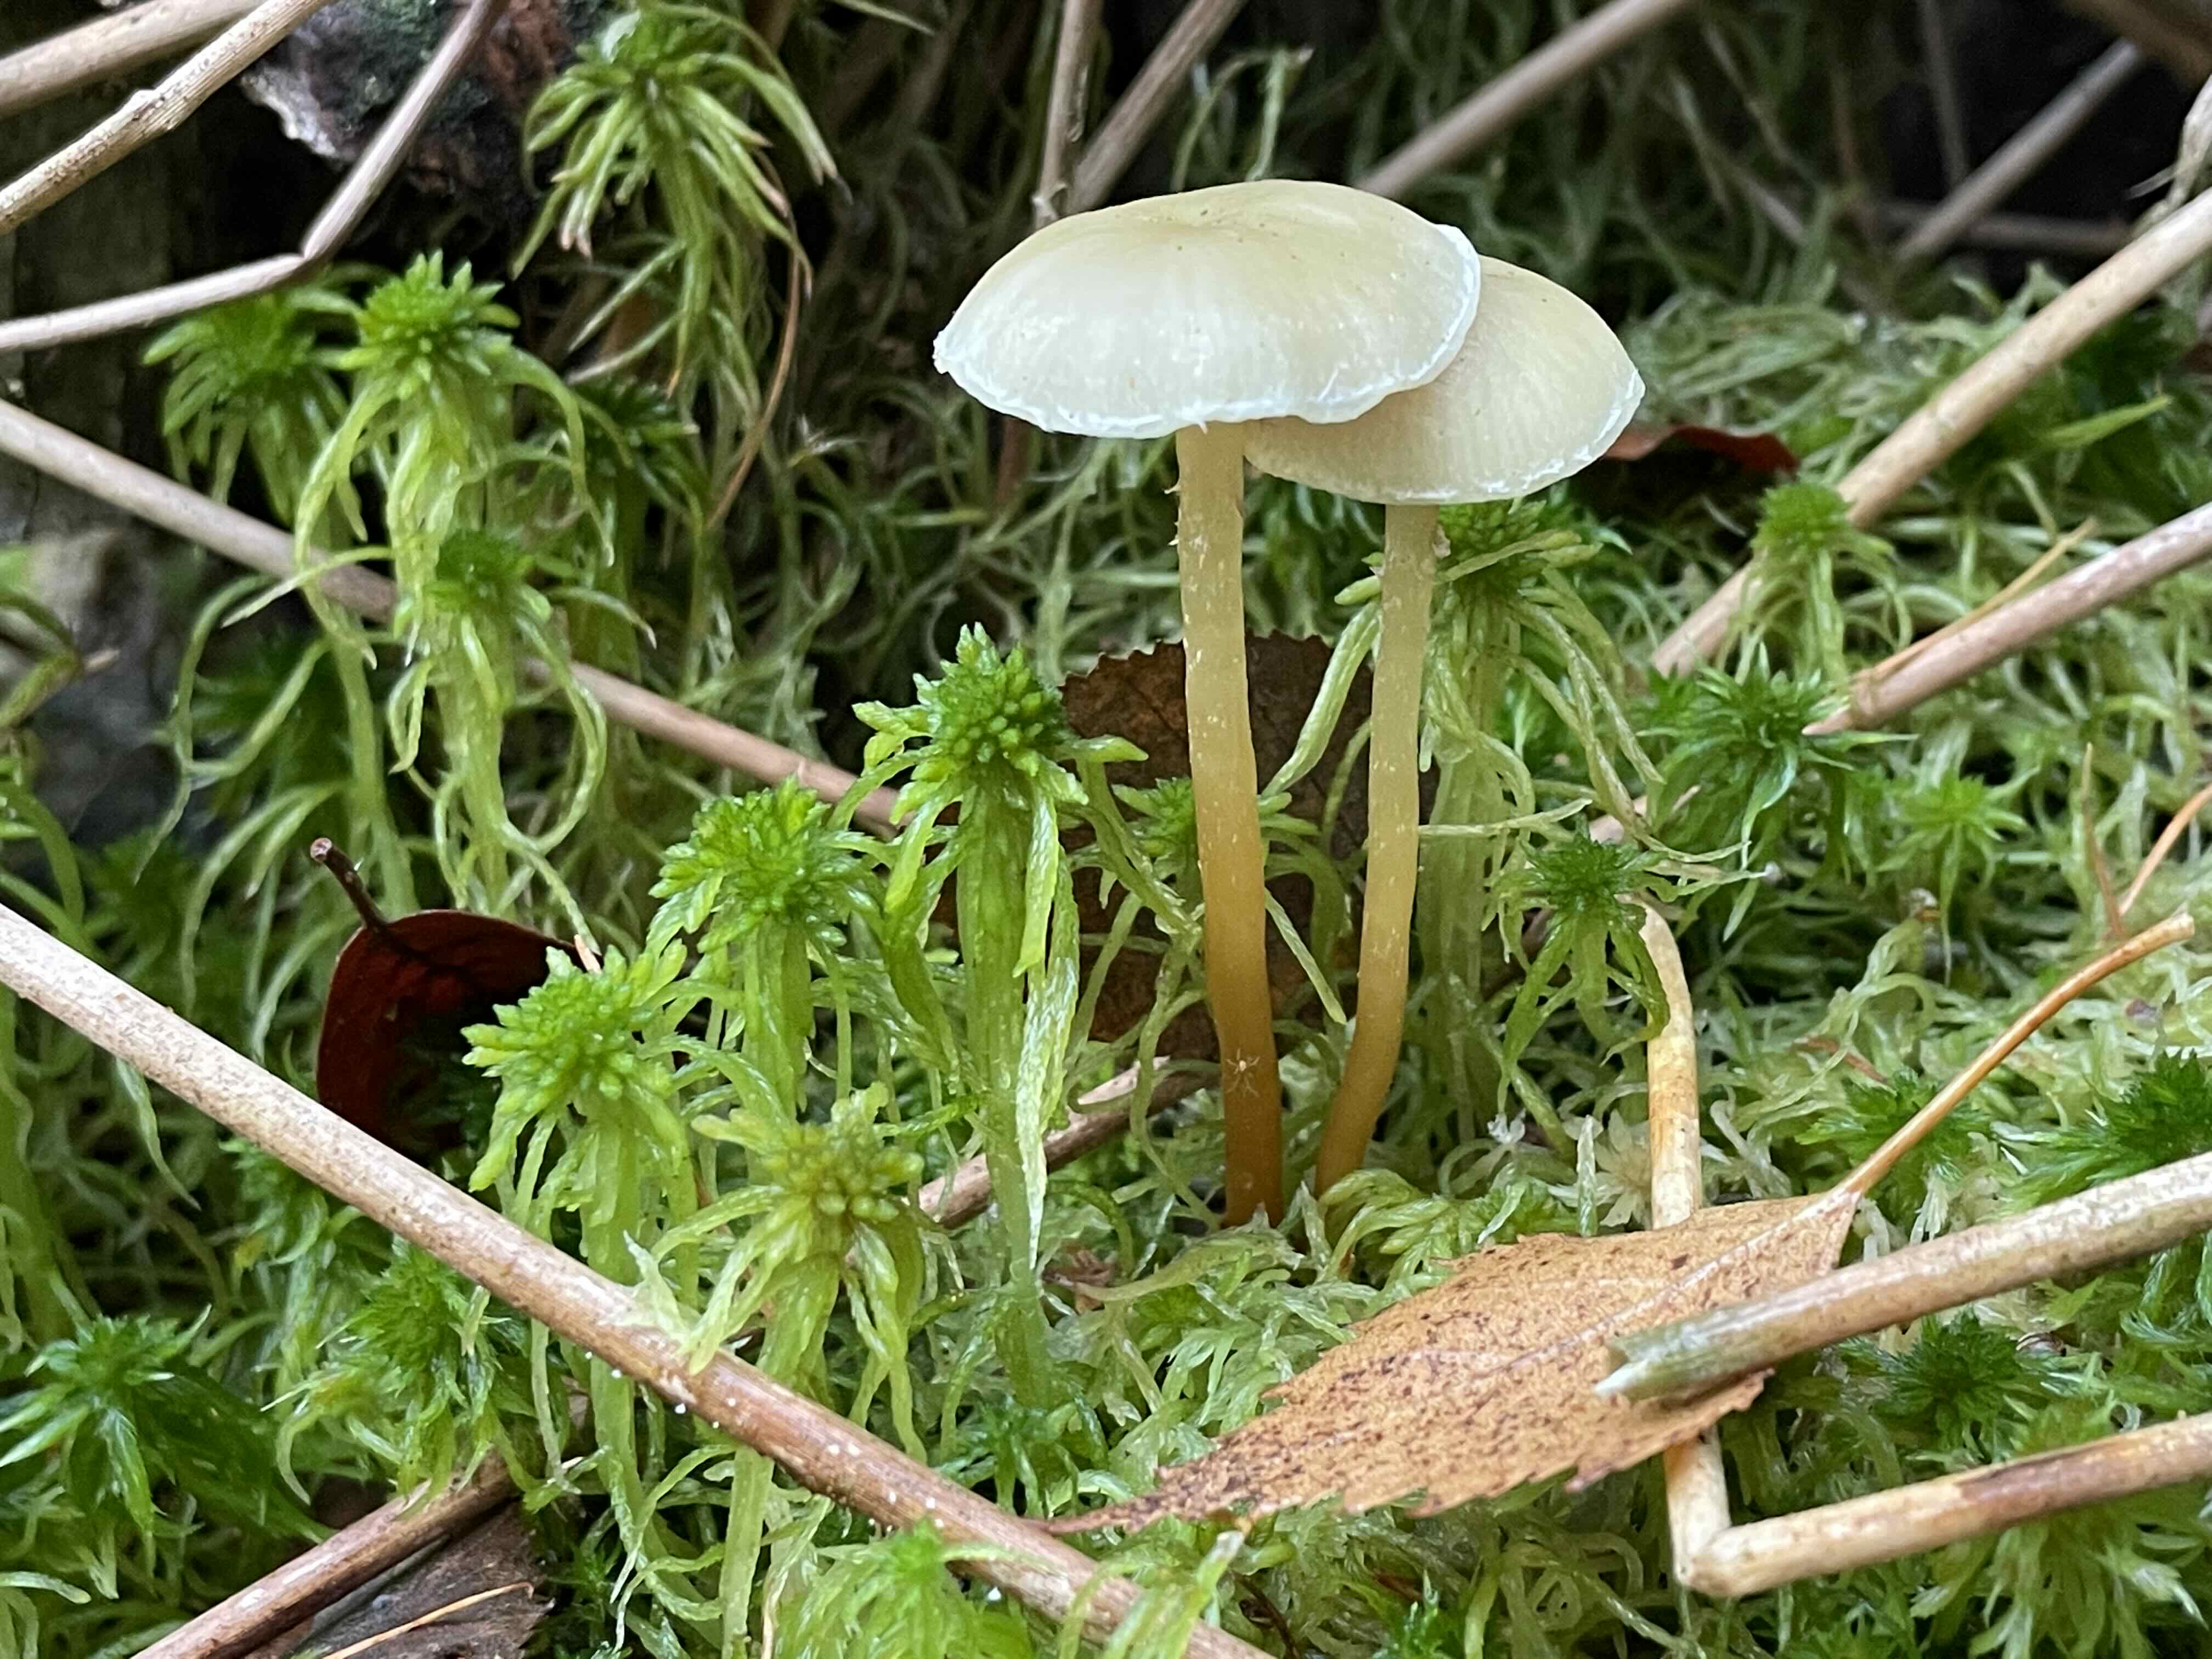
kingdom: Fungi
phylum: Basidiomycota
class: Agaricomycetes
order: Agaricales
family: Strophariaceae
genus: Hypholoma
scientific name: Hypholoma elongatum
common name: slank svovlhat
